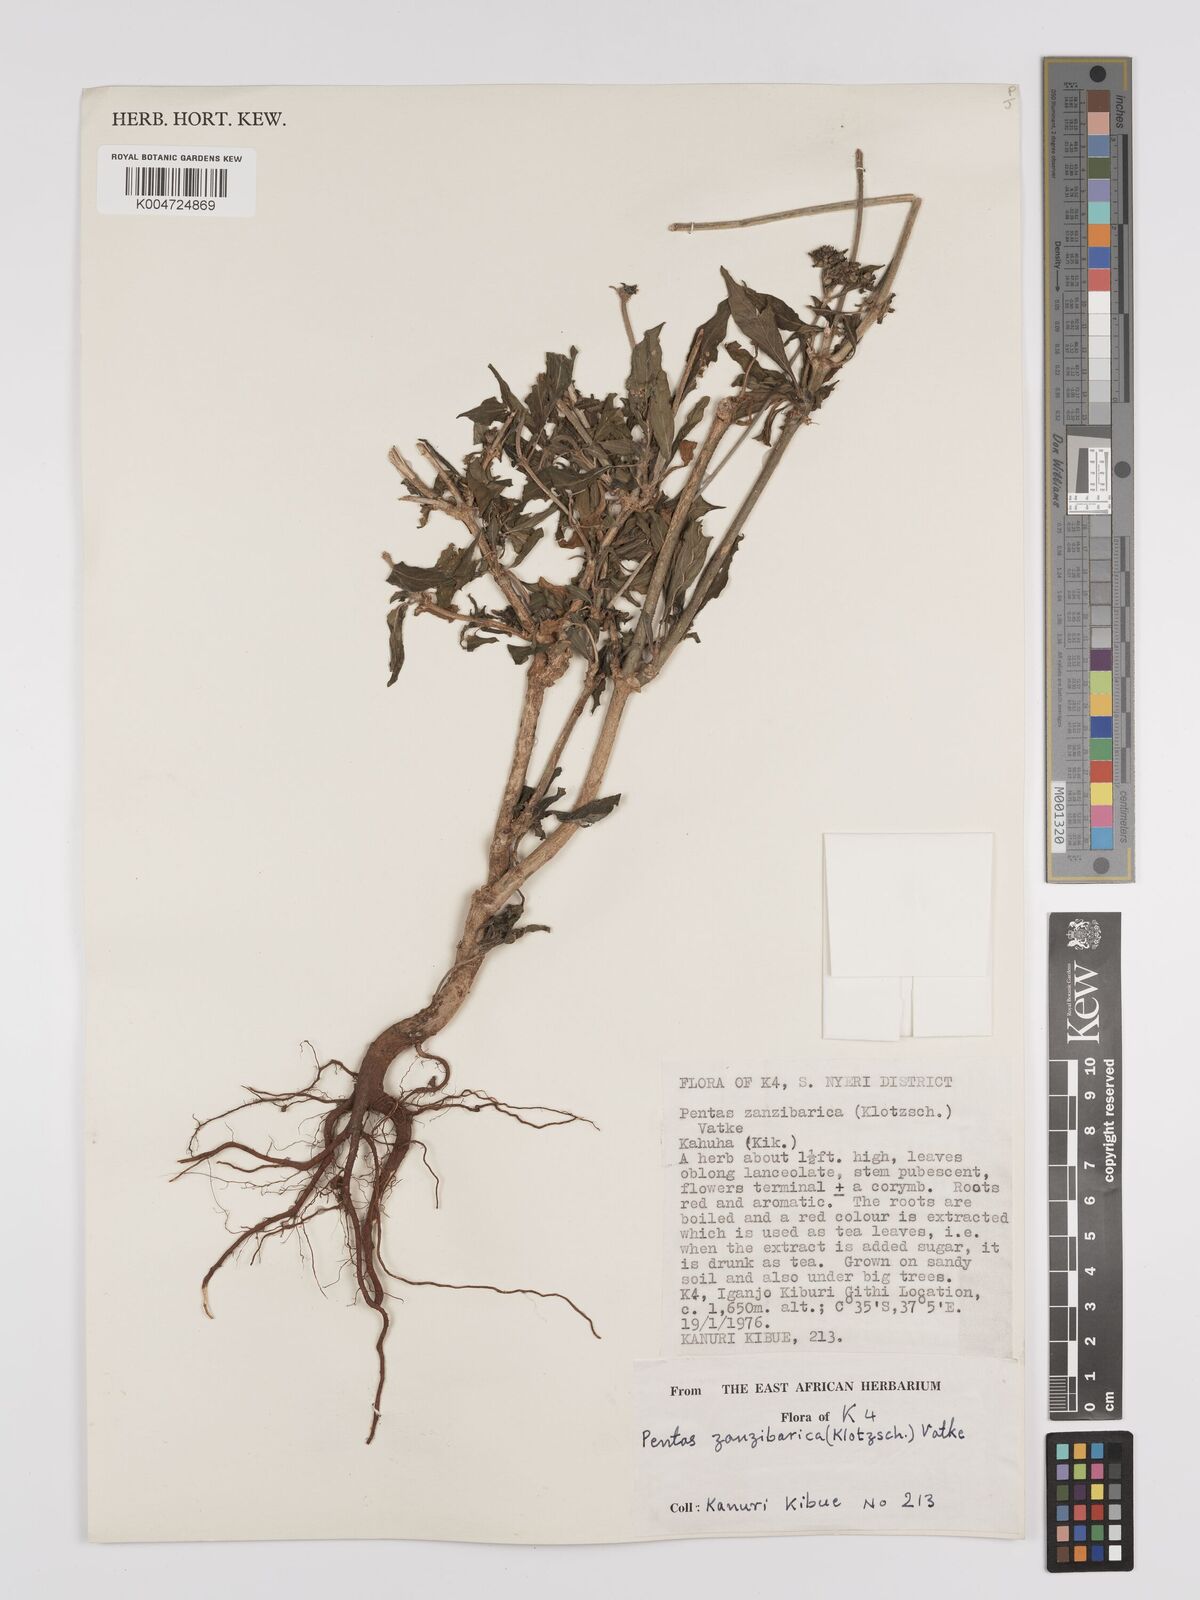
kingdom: Plantae
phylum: Tracheophyta
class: Magnoliopsida
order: Gentianales
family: Rubiaceae
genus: Pentas
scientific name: Pentas zanzibarica
